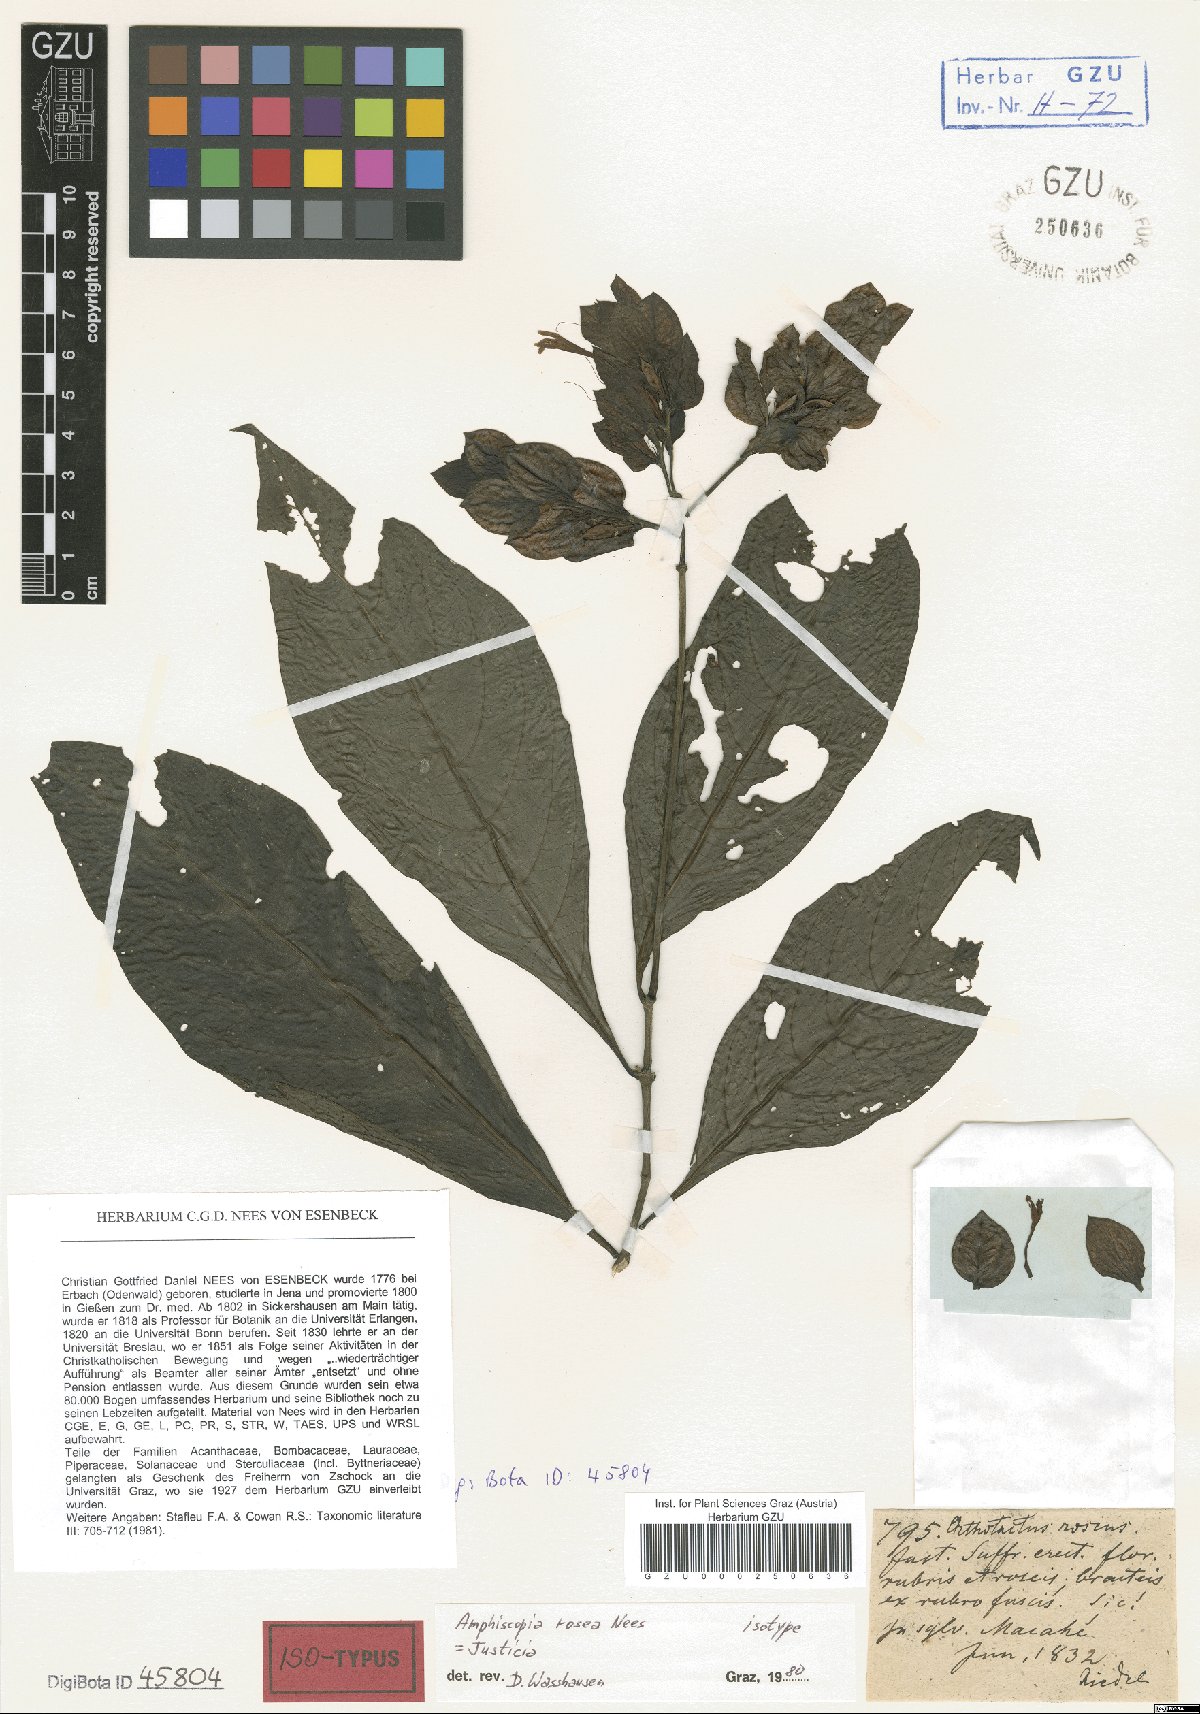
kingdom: Plantae
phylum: Tracheophyta
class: Magnoliopsida
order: Lamiales
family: Acanthaceae
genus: Justicia
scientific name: Justicia simonisia
